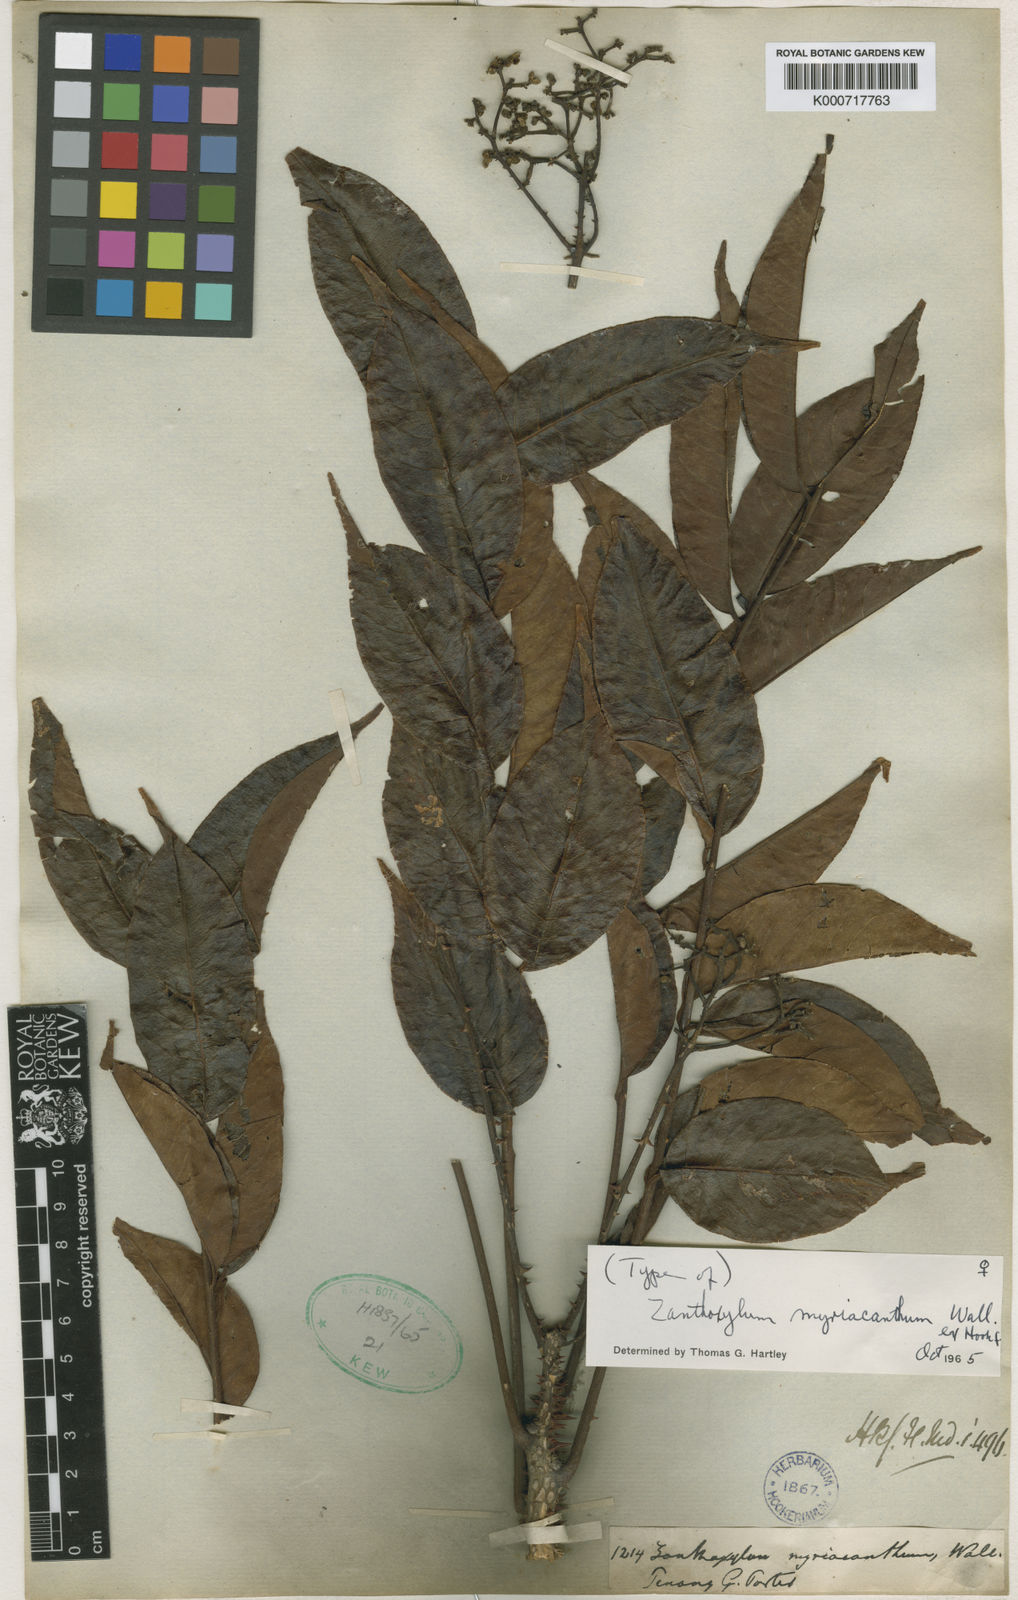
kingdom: Plantae
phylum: Tracheophyta
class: Magnoliopsida
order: Sapindales
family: Rutaceae
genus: Zanthoxylum
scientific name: Zanthoxylum myriacanthum
